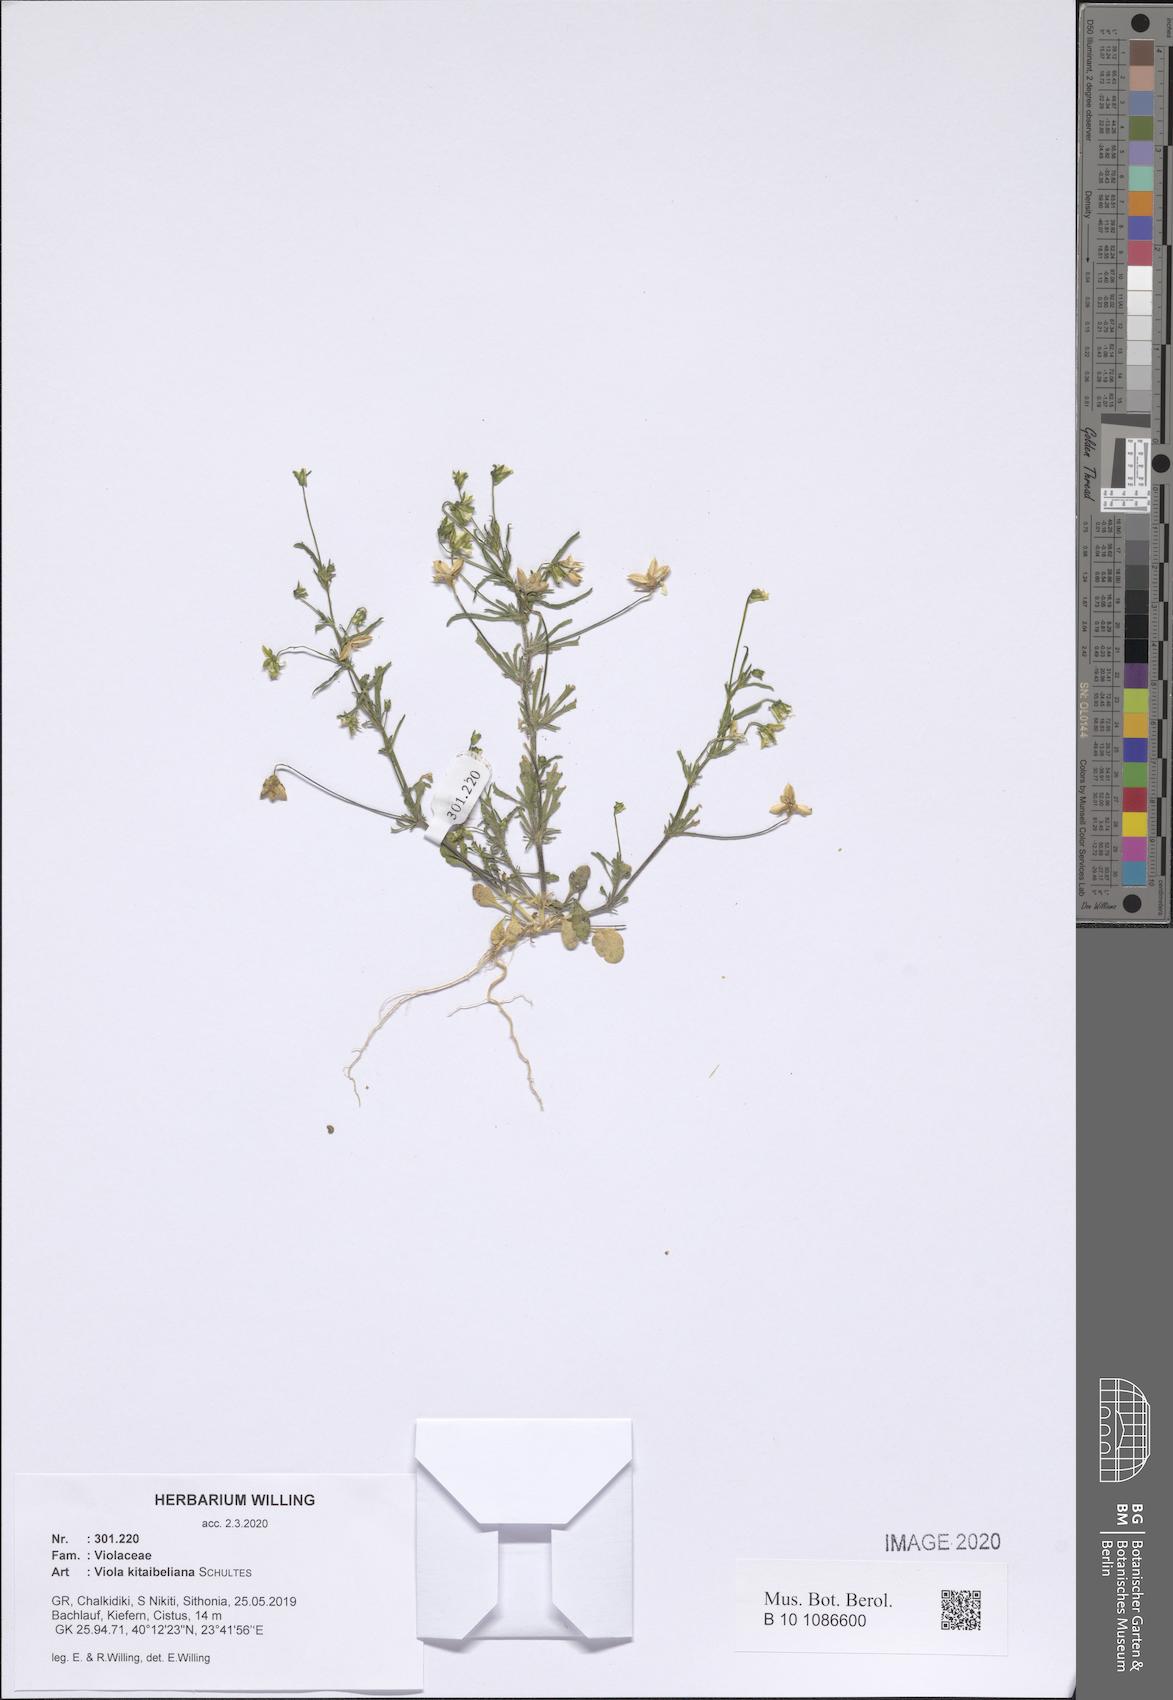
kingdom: Plantae
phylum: Tracheophyta
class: Magnoliopsida
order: Malpighiales
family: Violaceae
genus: Viola
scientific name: Viola kitaibeliana
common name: Dwarf pansy
